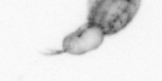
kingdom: Animalia
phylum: Arthropoda
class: Copepoda
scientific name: Copepoda
